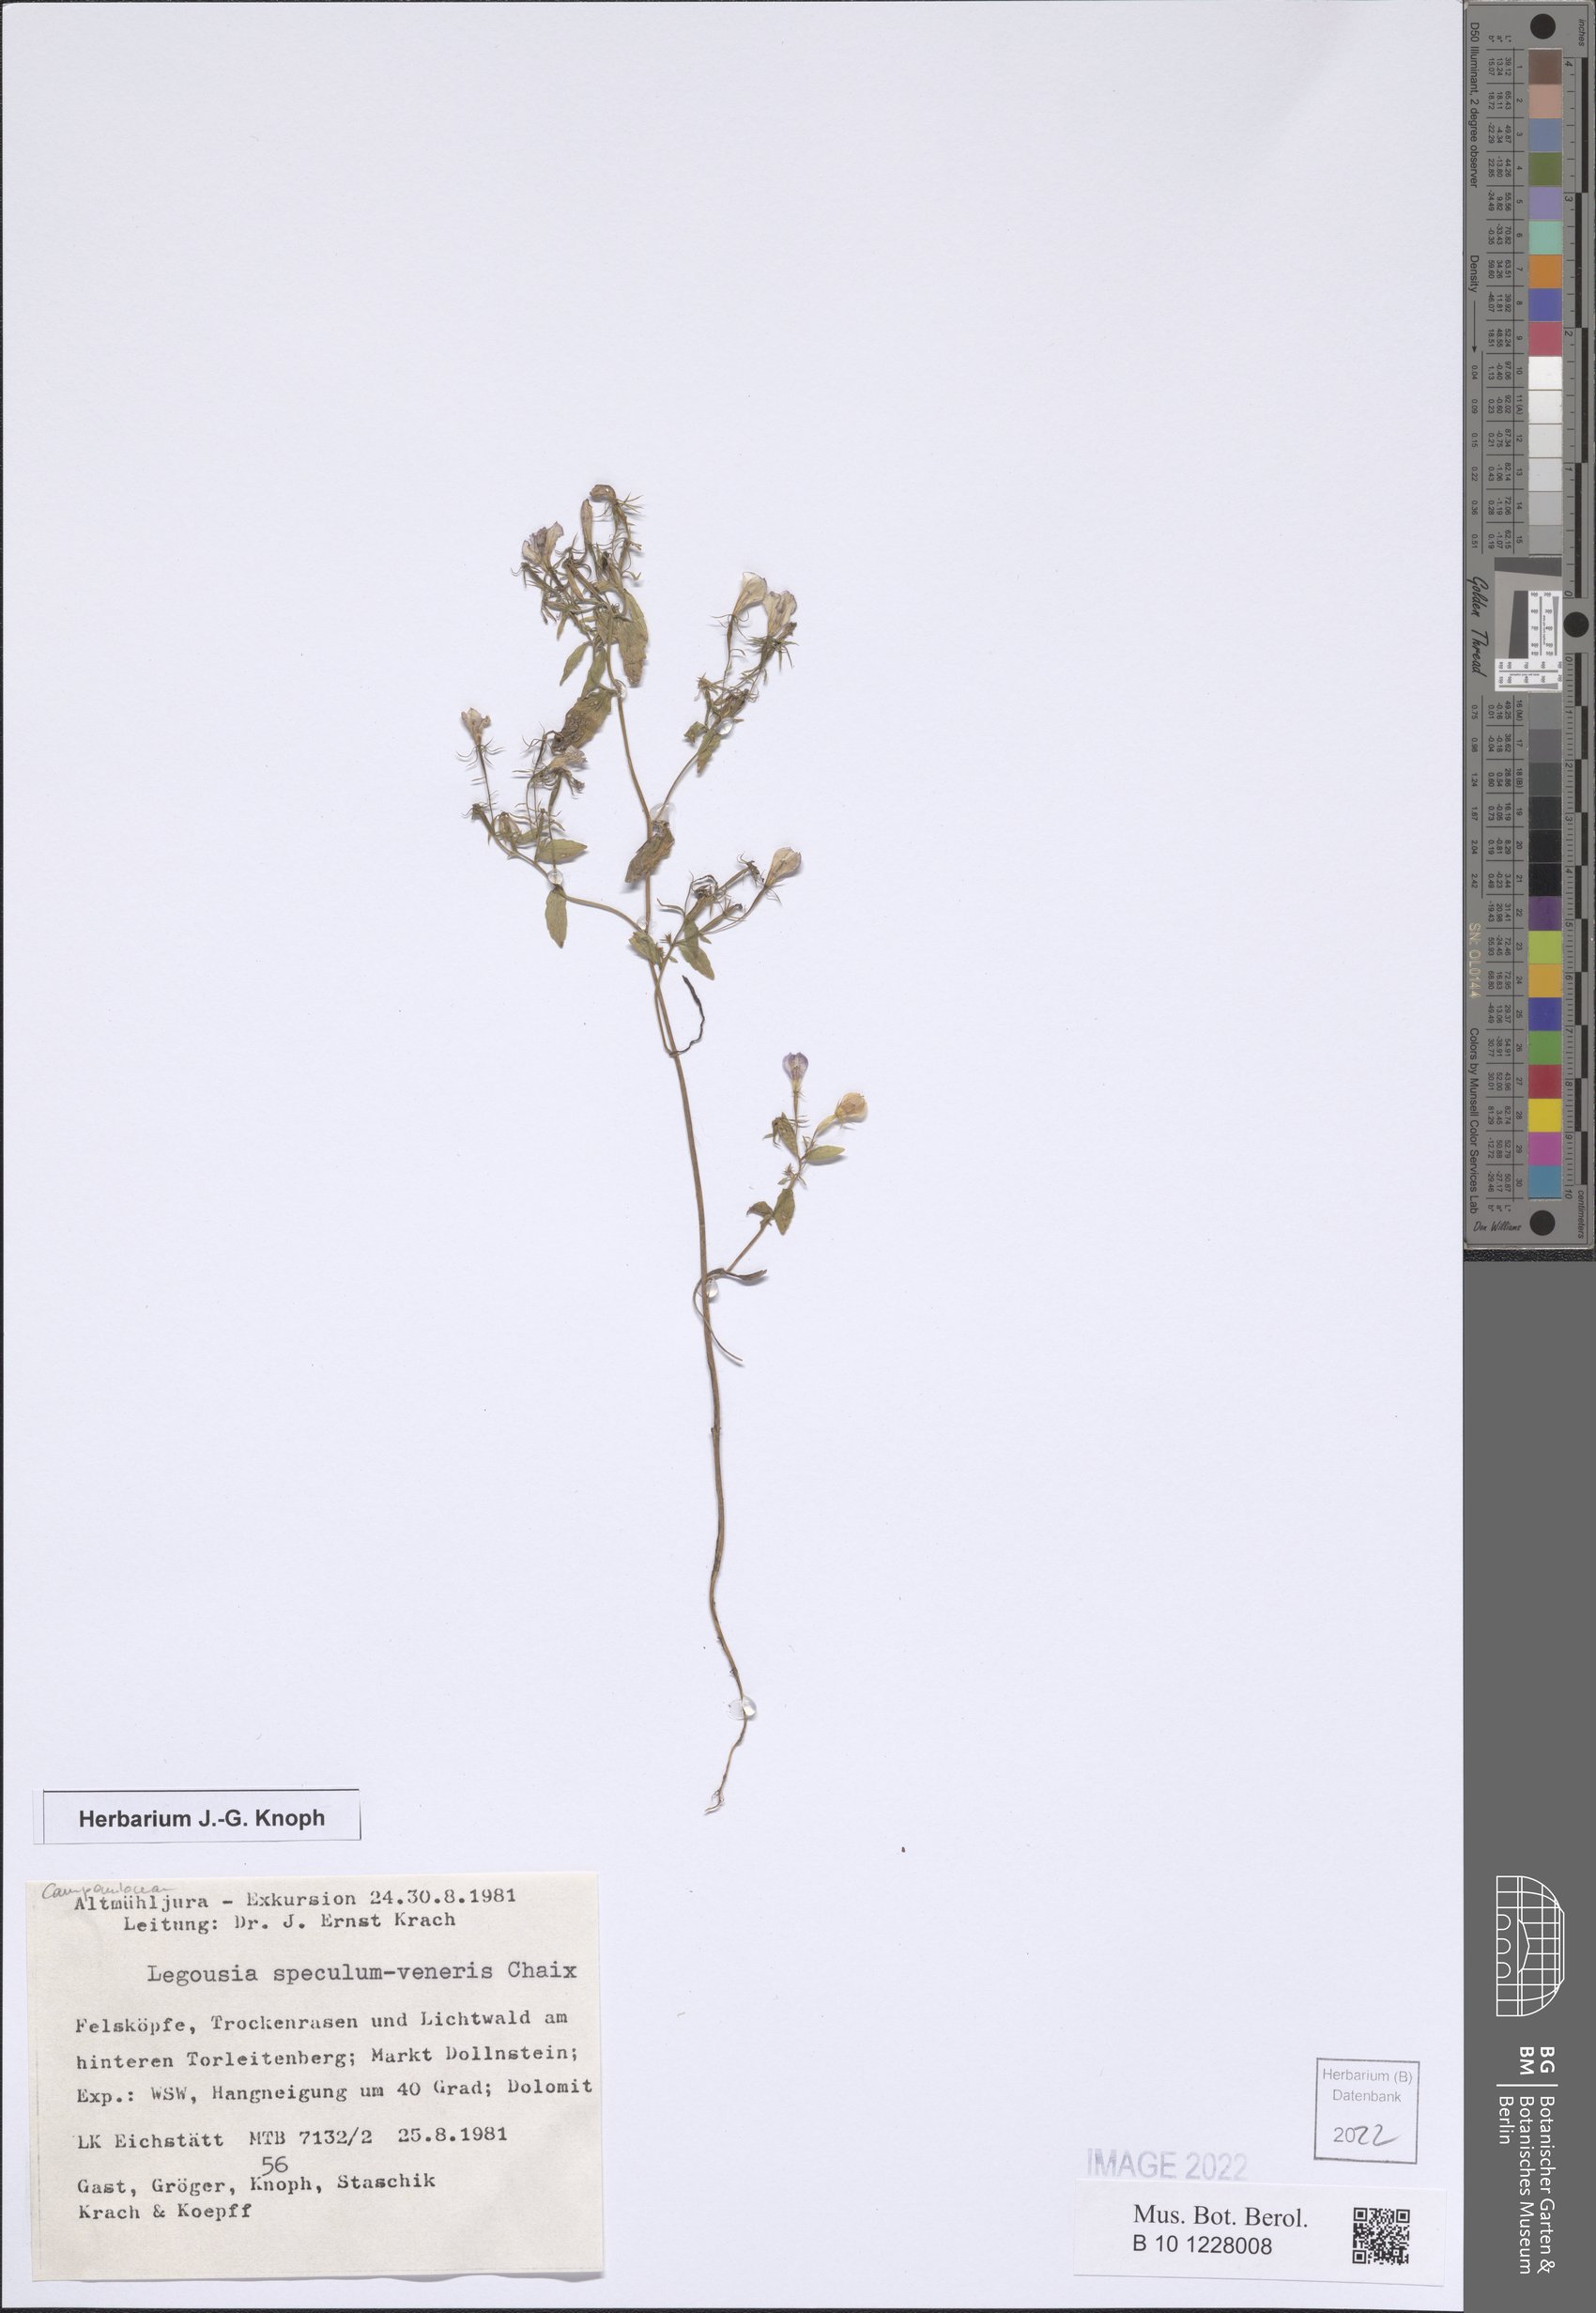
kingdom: Plantae
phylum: Tracheophyta
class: Magnoliopsida
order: Asterales
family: Campanulaceae
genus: Legousia
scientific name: Legousia speculum-veneris
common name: Large venus's-looking-glass
